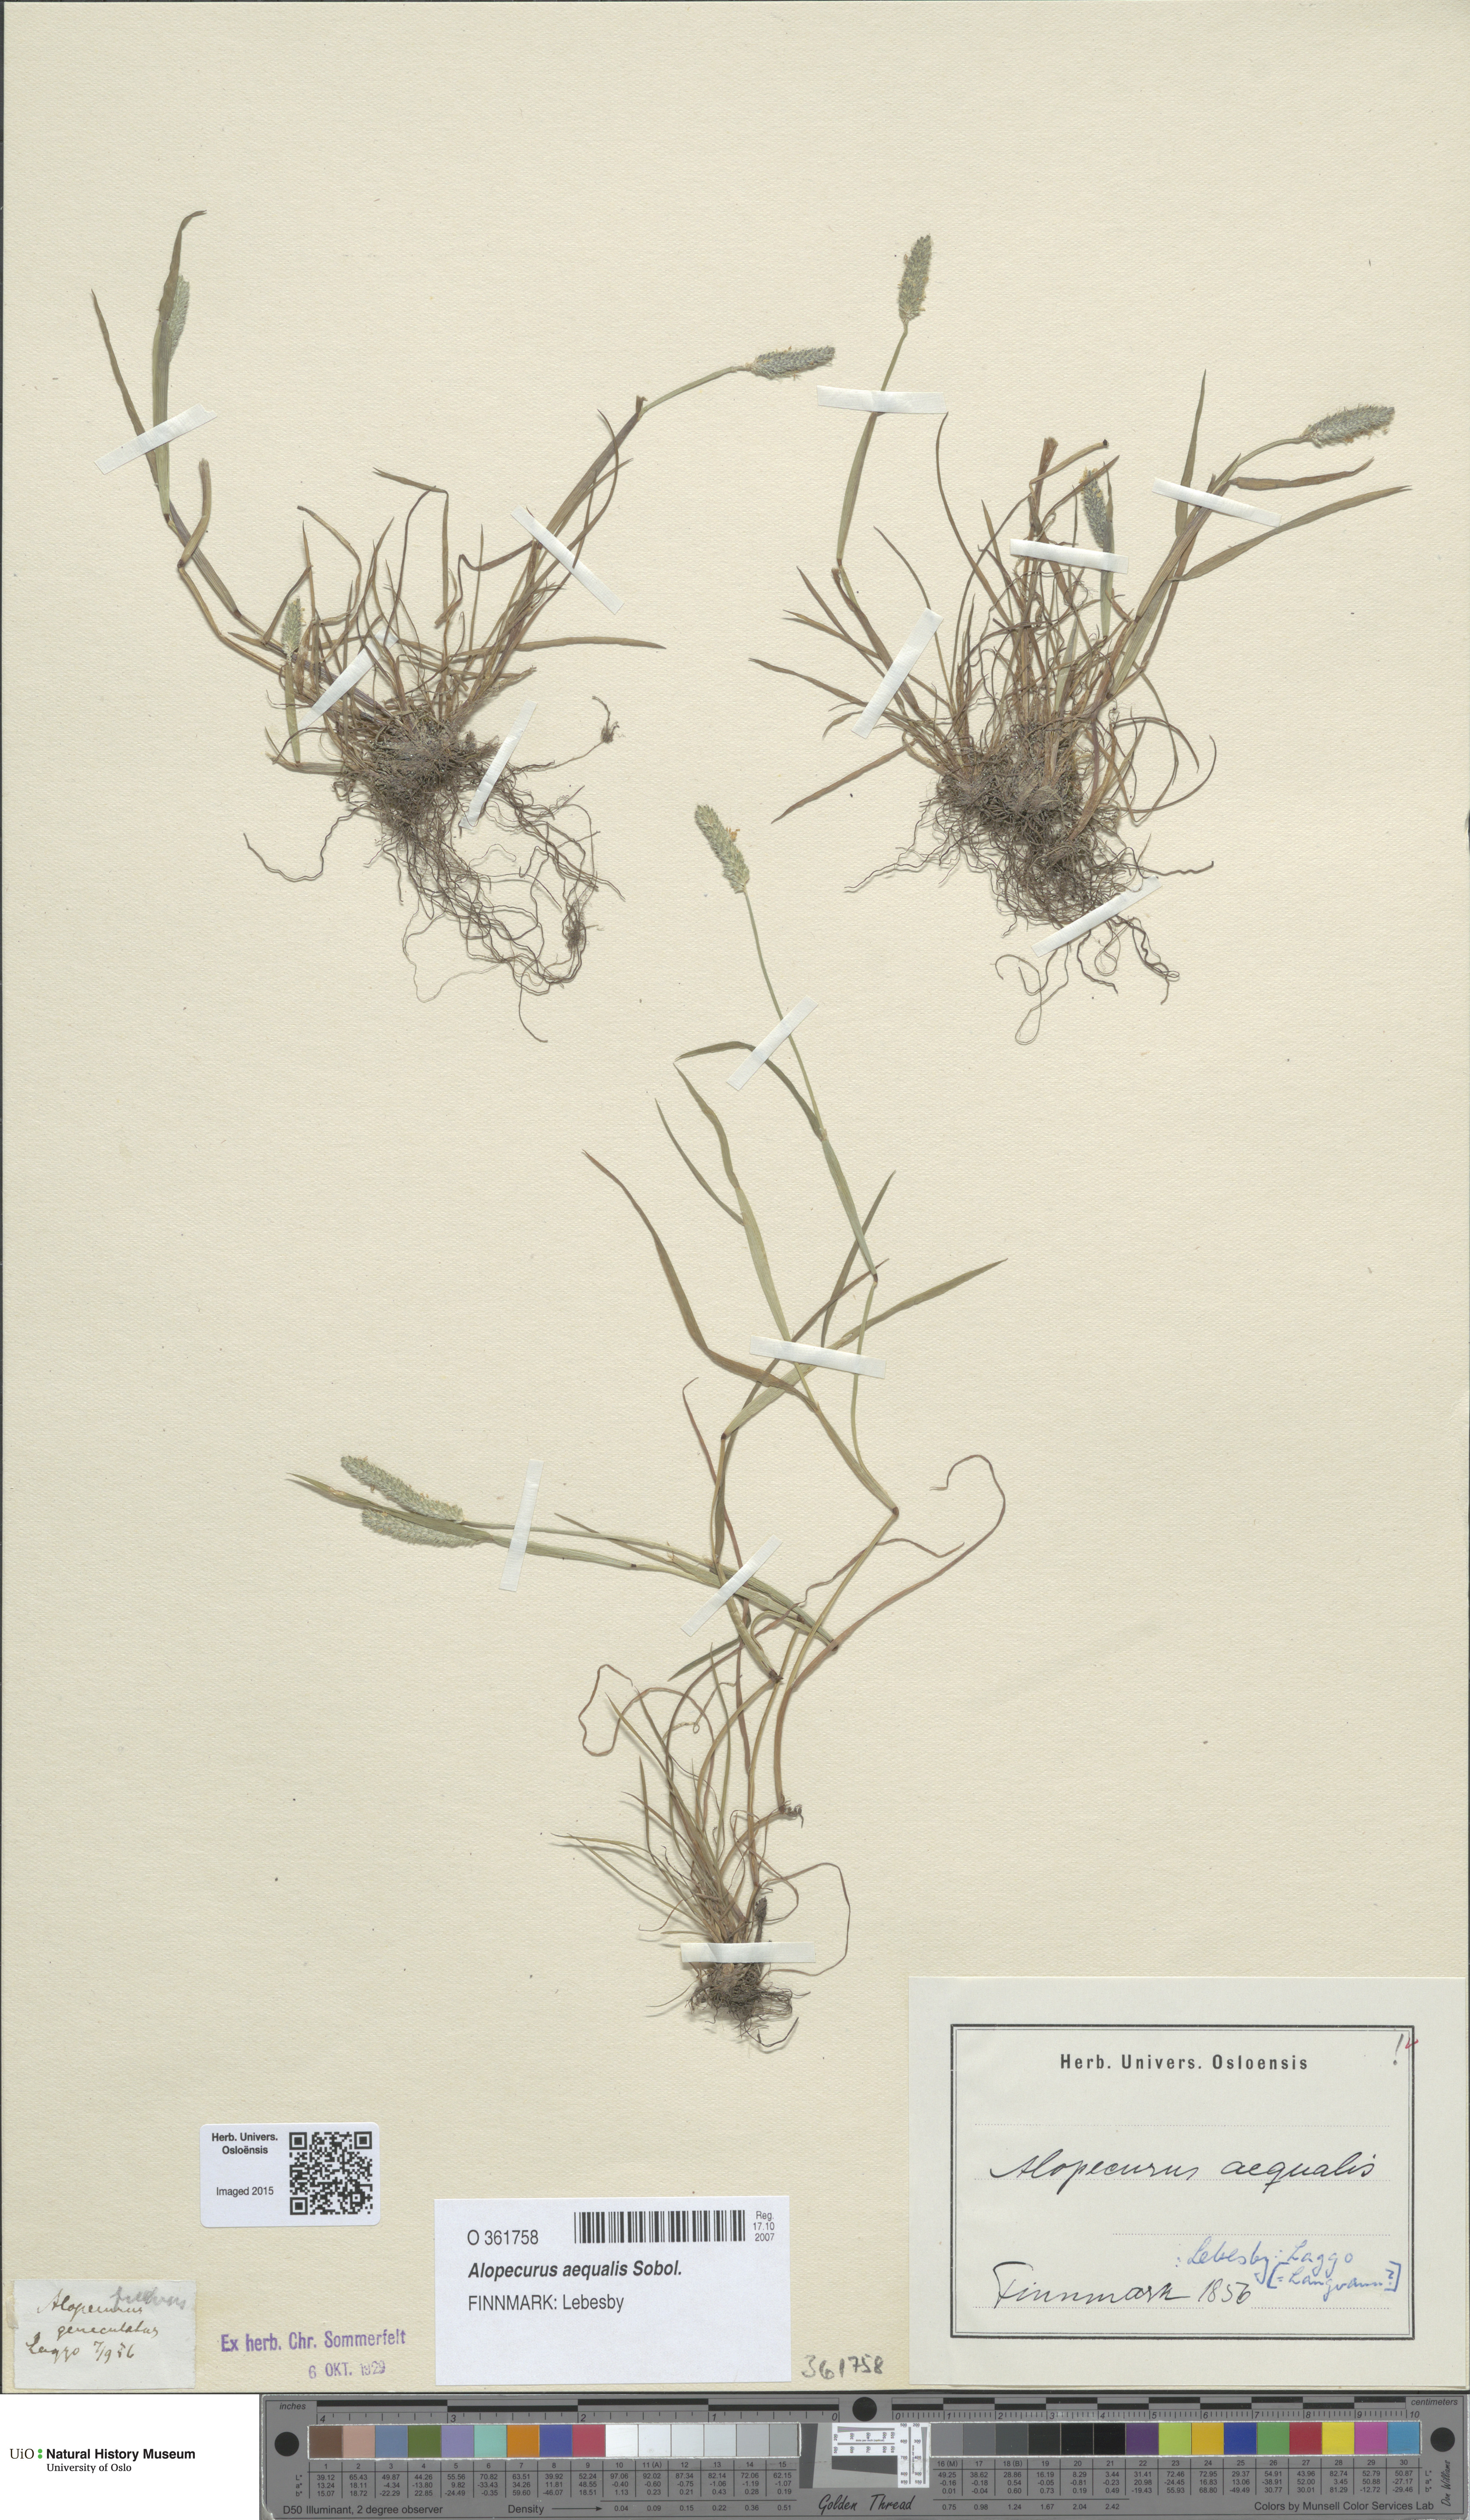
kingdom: Plantae
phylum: Tracheophyta
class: Liliopsida
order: Poales
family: Poaceae
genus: Alopecurus
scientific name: Alopecurus aequalis
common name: Orange foxtail
